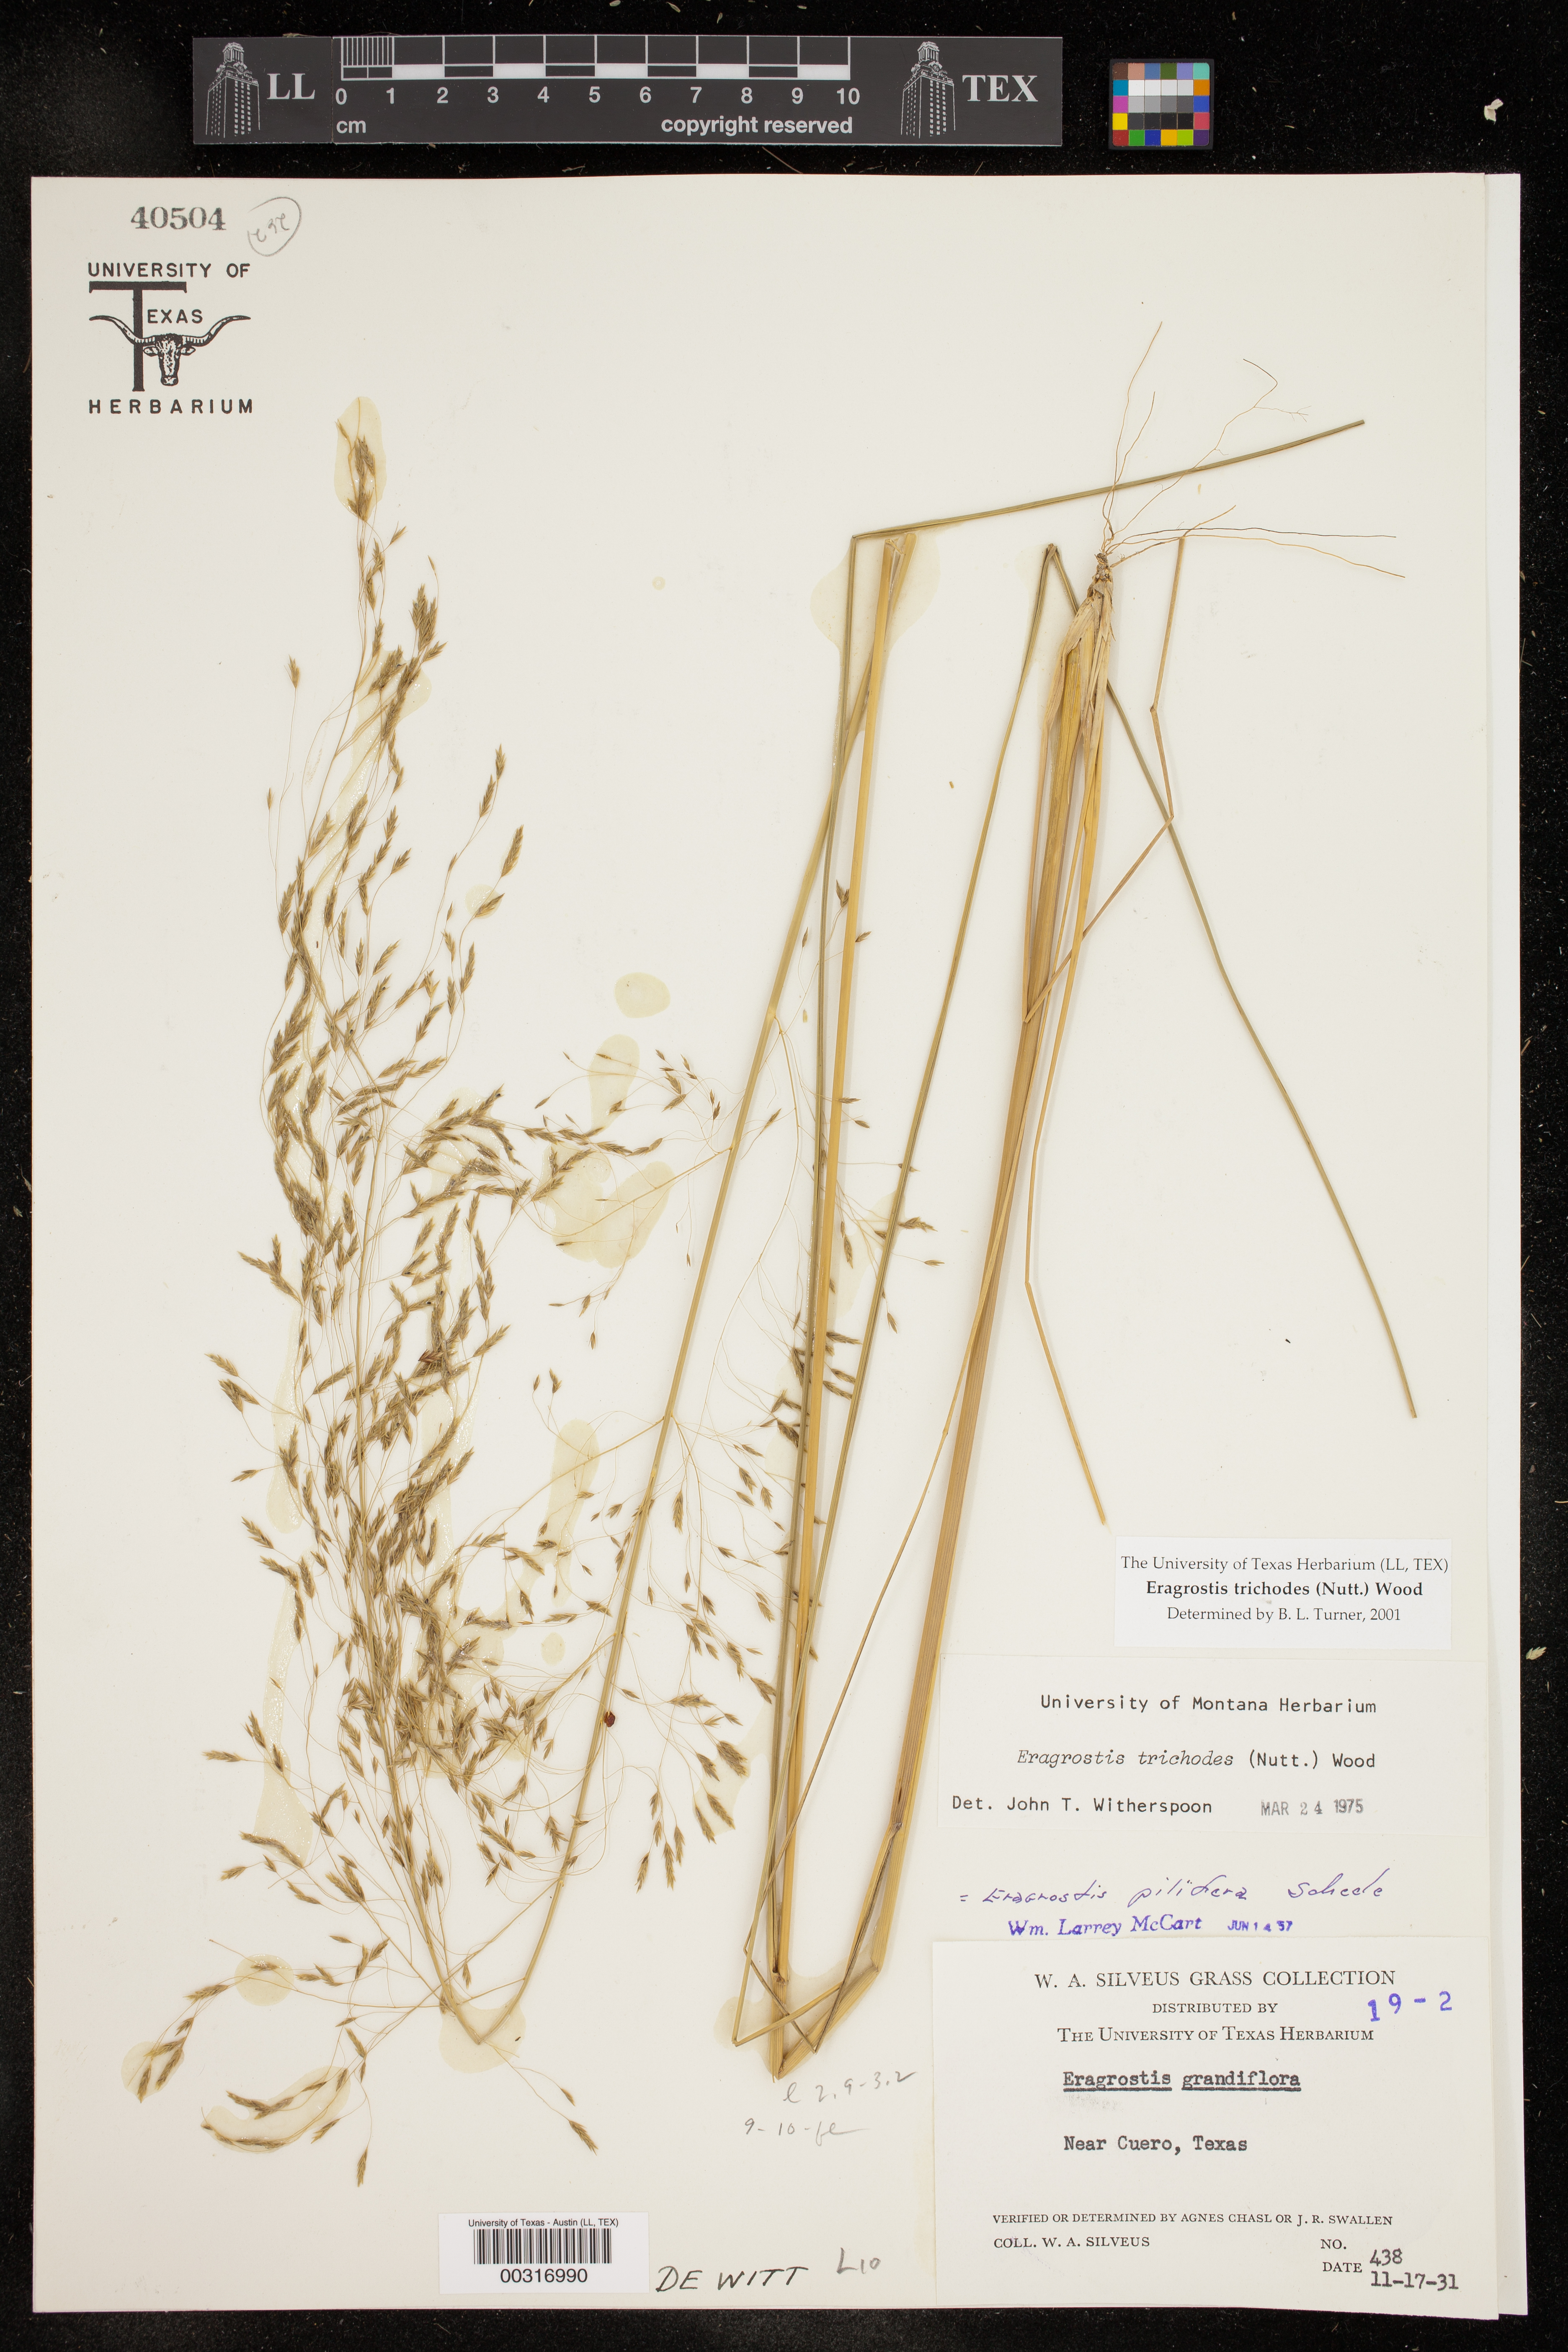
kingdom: Plantae
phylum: Tracheophyta
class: Liliopsida
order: Poales
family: Poaceae
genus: Eragrostis
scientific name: Eragrostis trichodes
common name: Sand love grass
